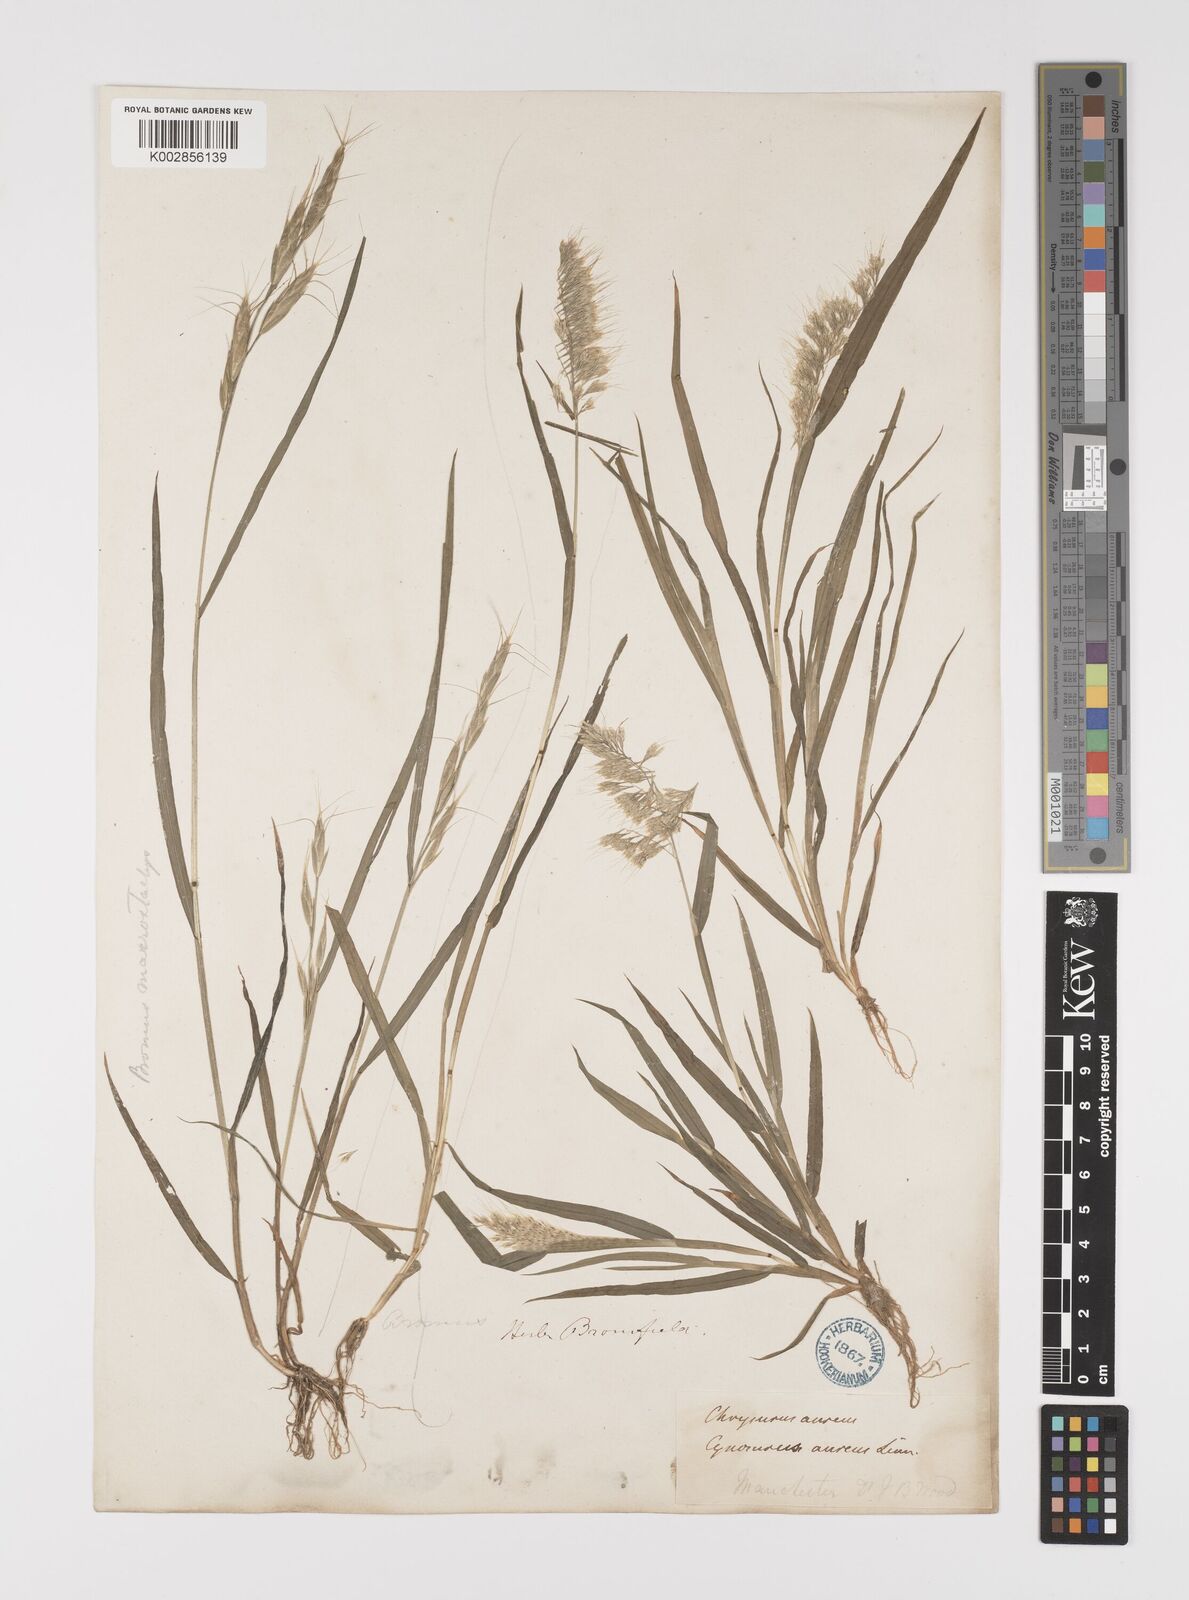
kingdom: Plantae
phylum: Tracheophyta
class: Liliopsida
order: Poales
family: Poaceae
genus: Lamarckia
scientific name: Lamarckia aurea
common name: Golden dog's-tail
